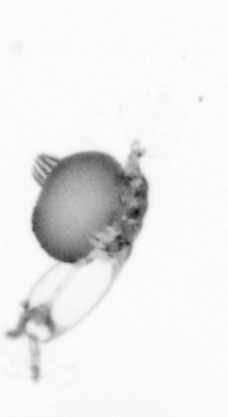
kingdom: Animalia
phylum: Arthropoda
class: Copepoda
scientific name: Copepoda
